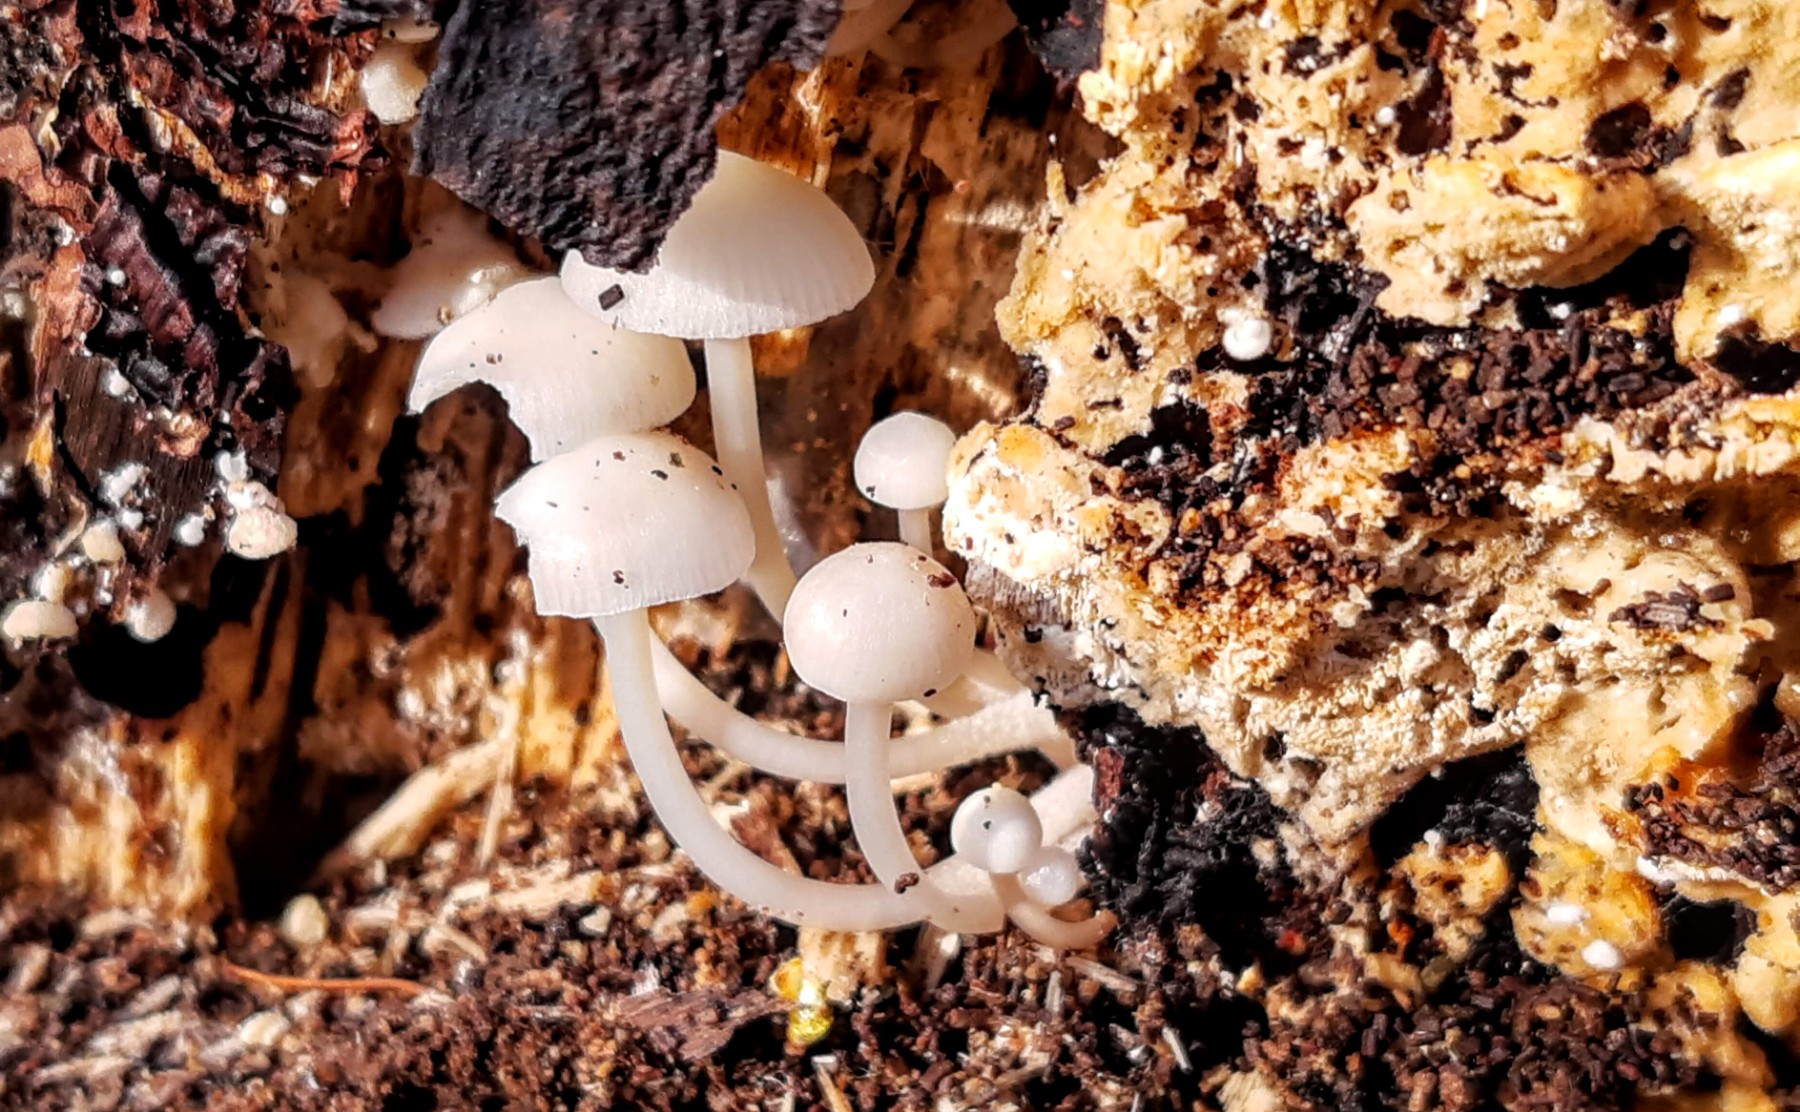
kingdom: Fungi
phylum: Basidiomycota
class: Agaricomycetes
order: Agaricales
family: Mycenaceae
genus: Mycena
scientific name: Mycena tintinnabulum
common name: vinter-huesvamp
